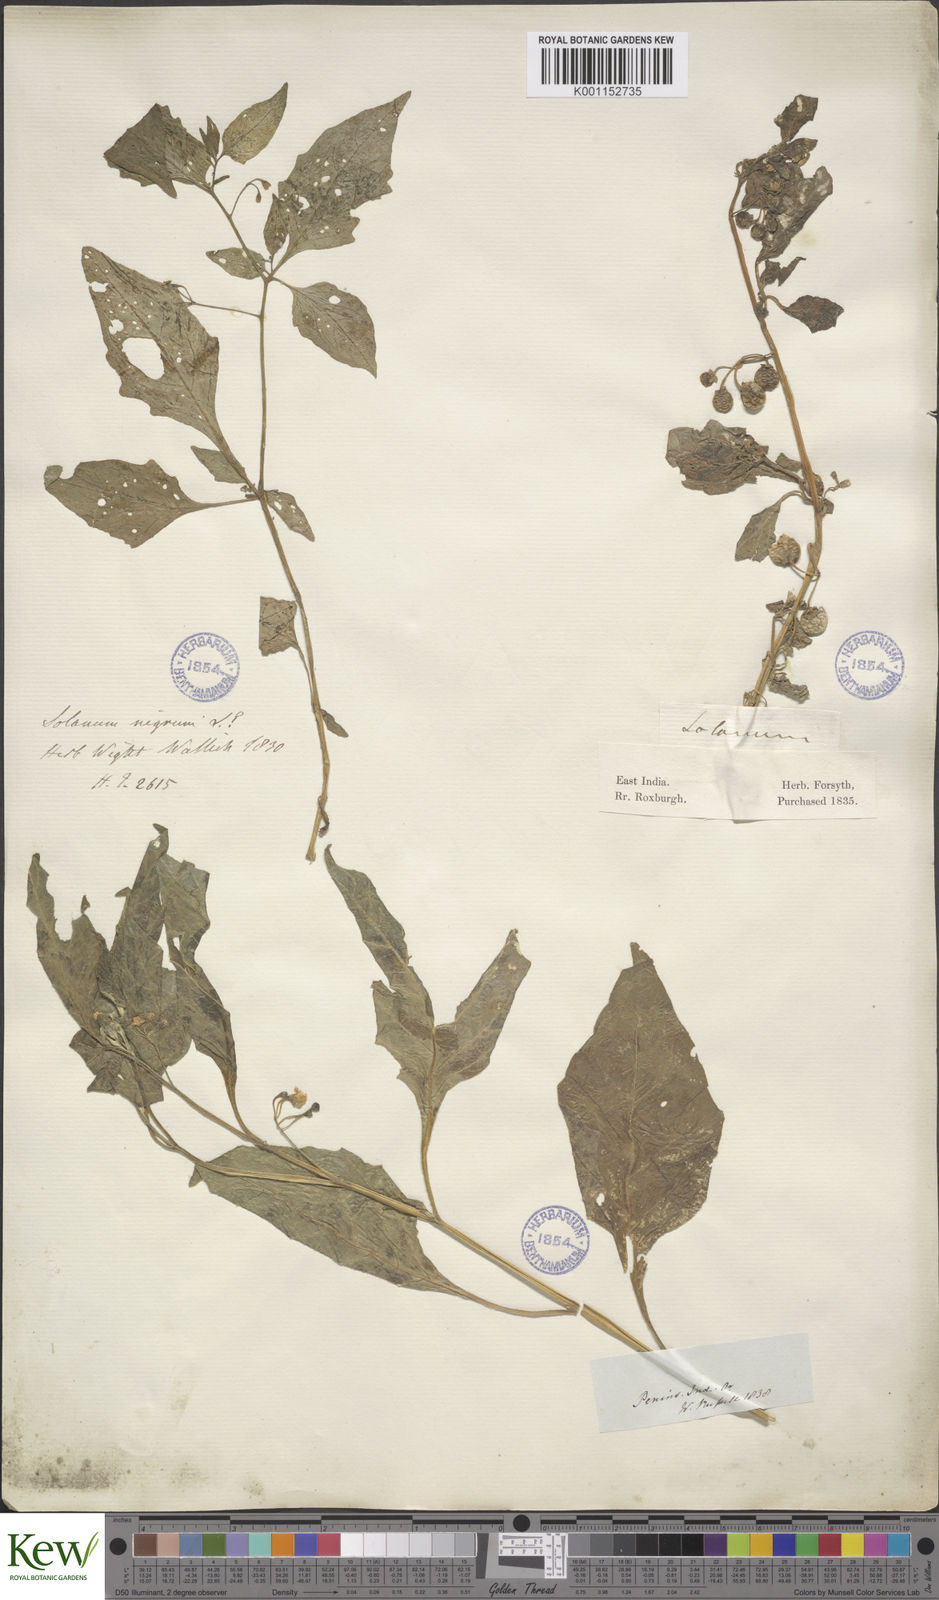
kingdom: Plantae
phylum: Tracheophyta
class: Magnoliopsida
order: Solanales
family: Solanaceae
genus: Solanum
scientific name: Solanum nigrum
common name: Black nightshade
